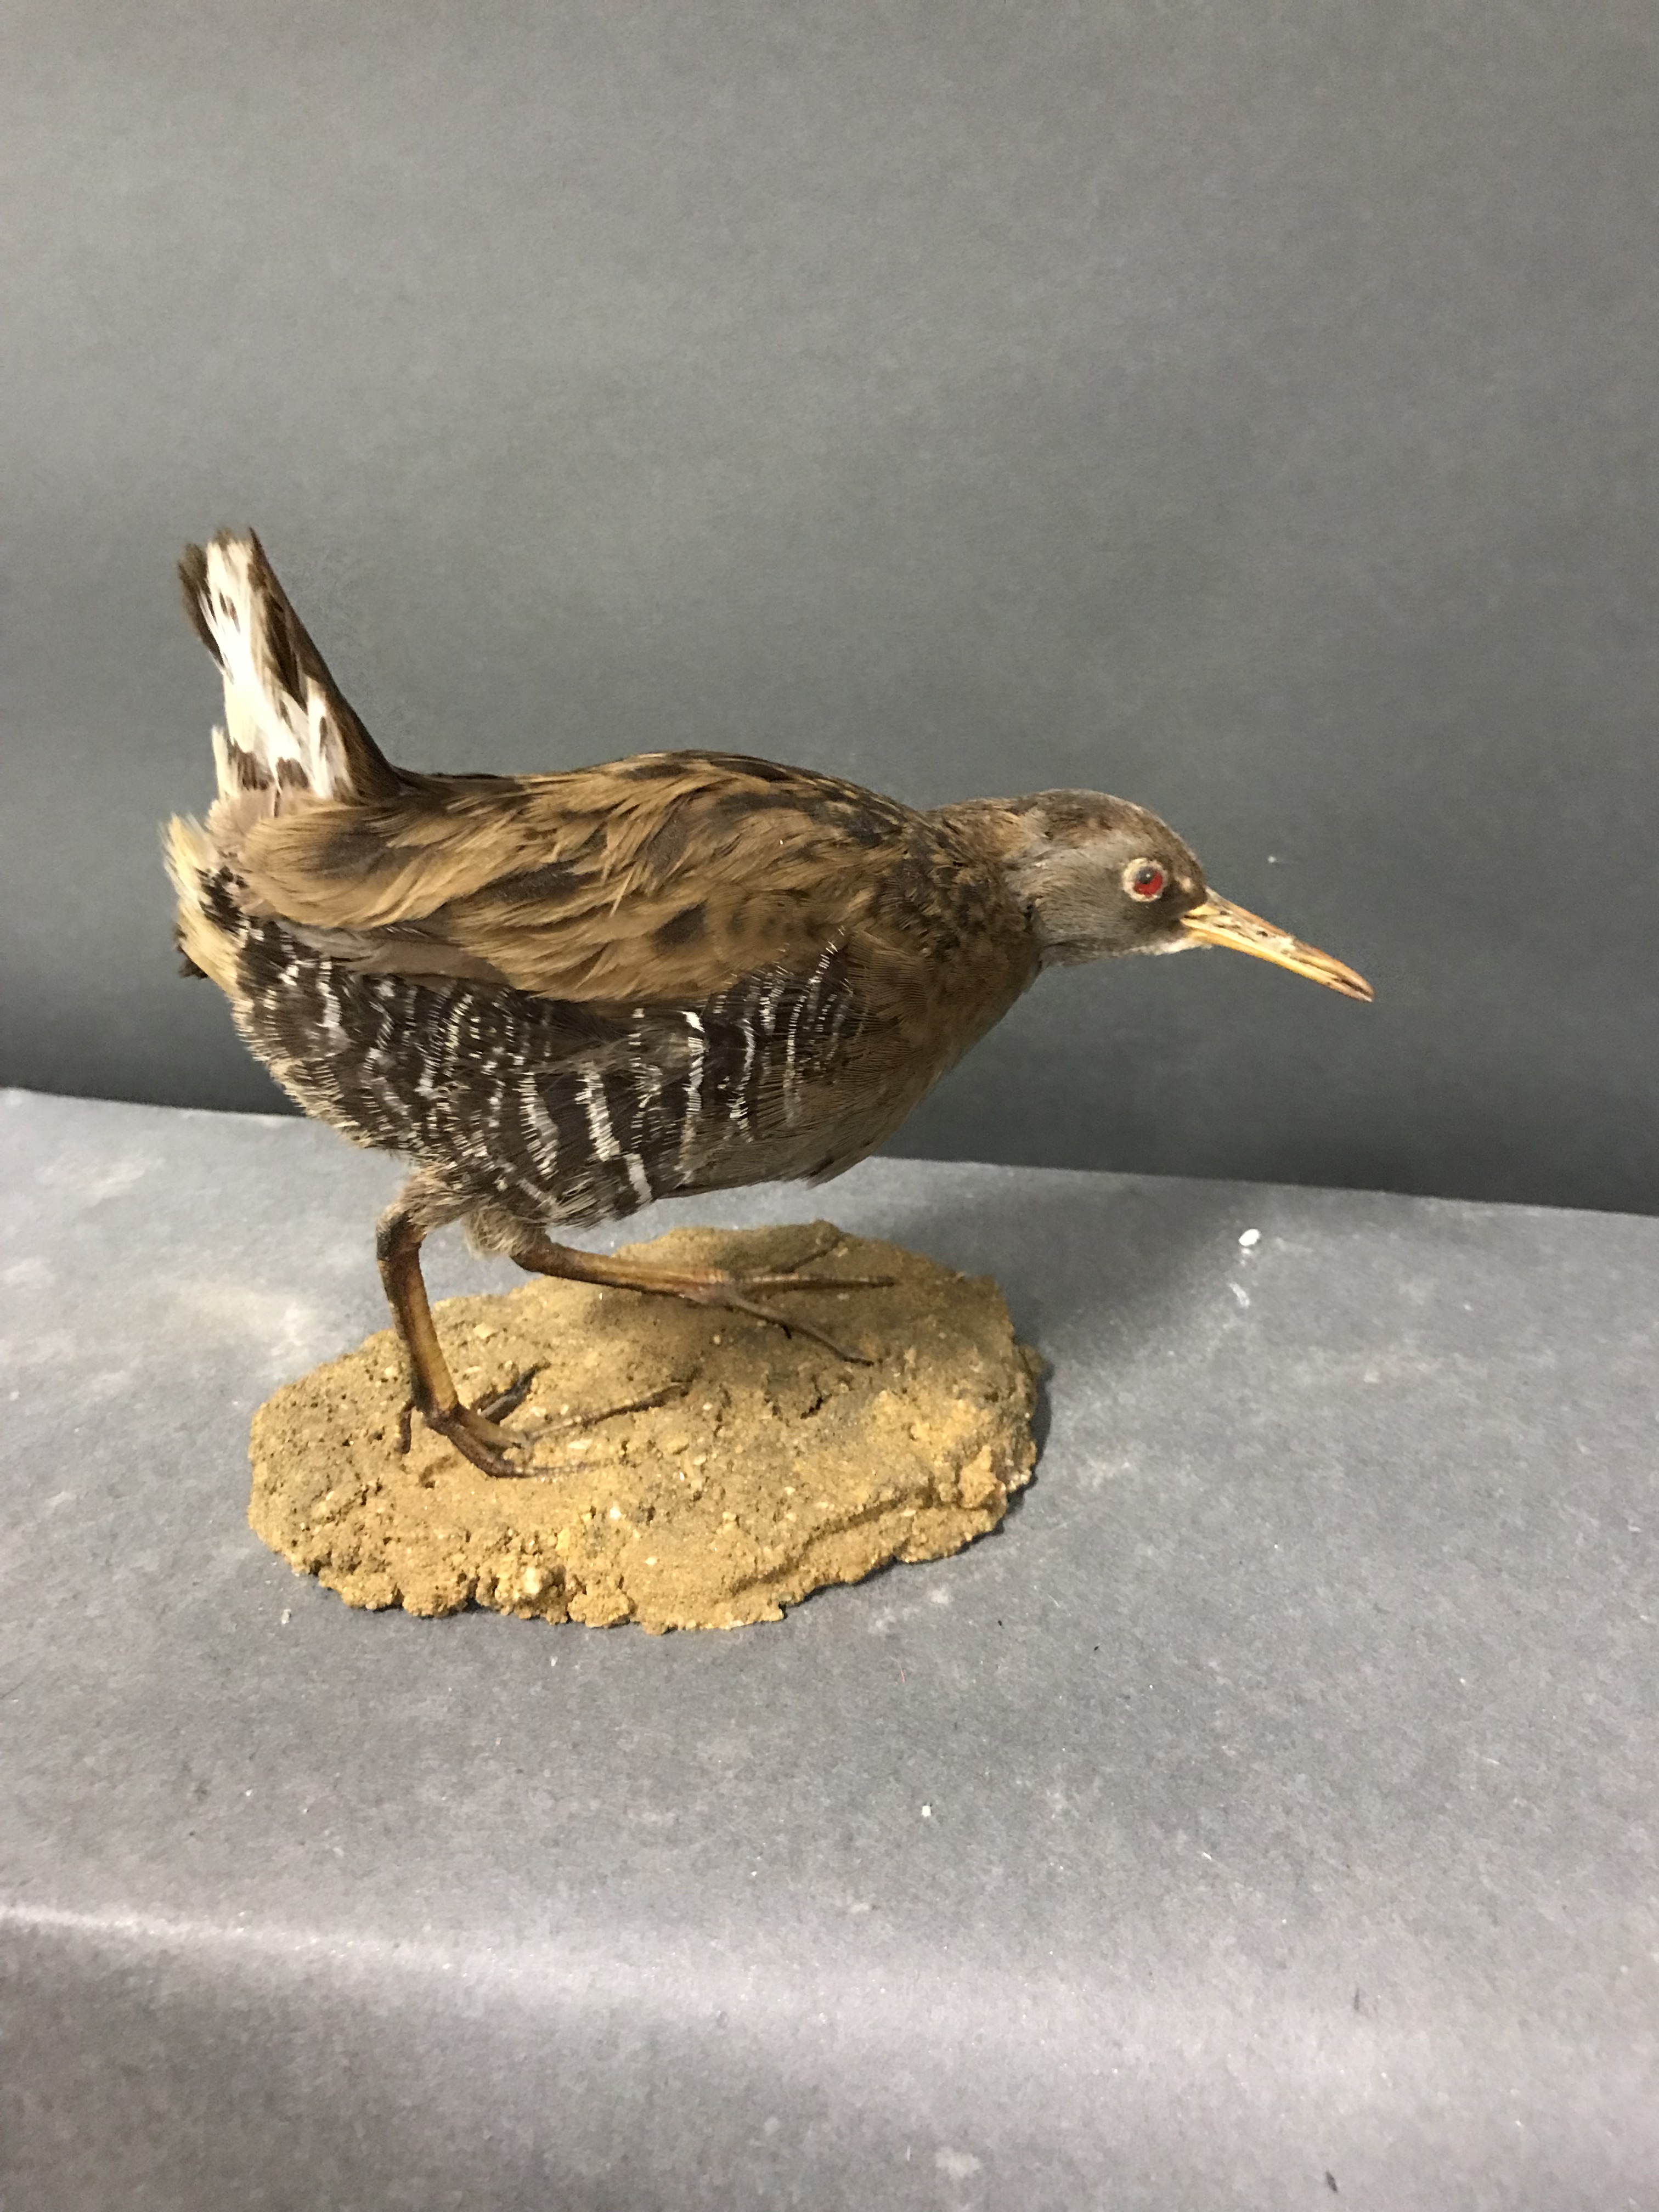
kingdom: Animalia
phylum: Chordata
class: Aves
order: Gruiformes
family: Rallidae
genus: Rallus
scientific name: Rallus aquaticus
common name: Water rail
